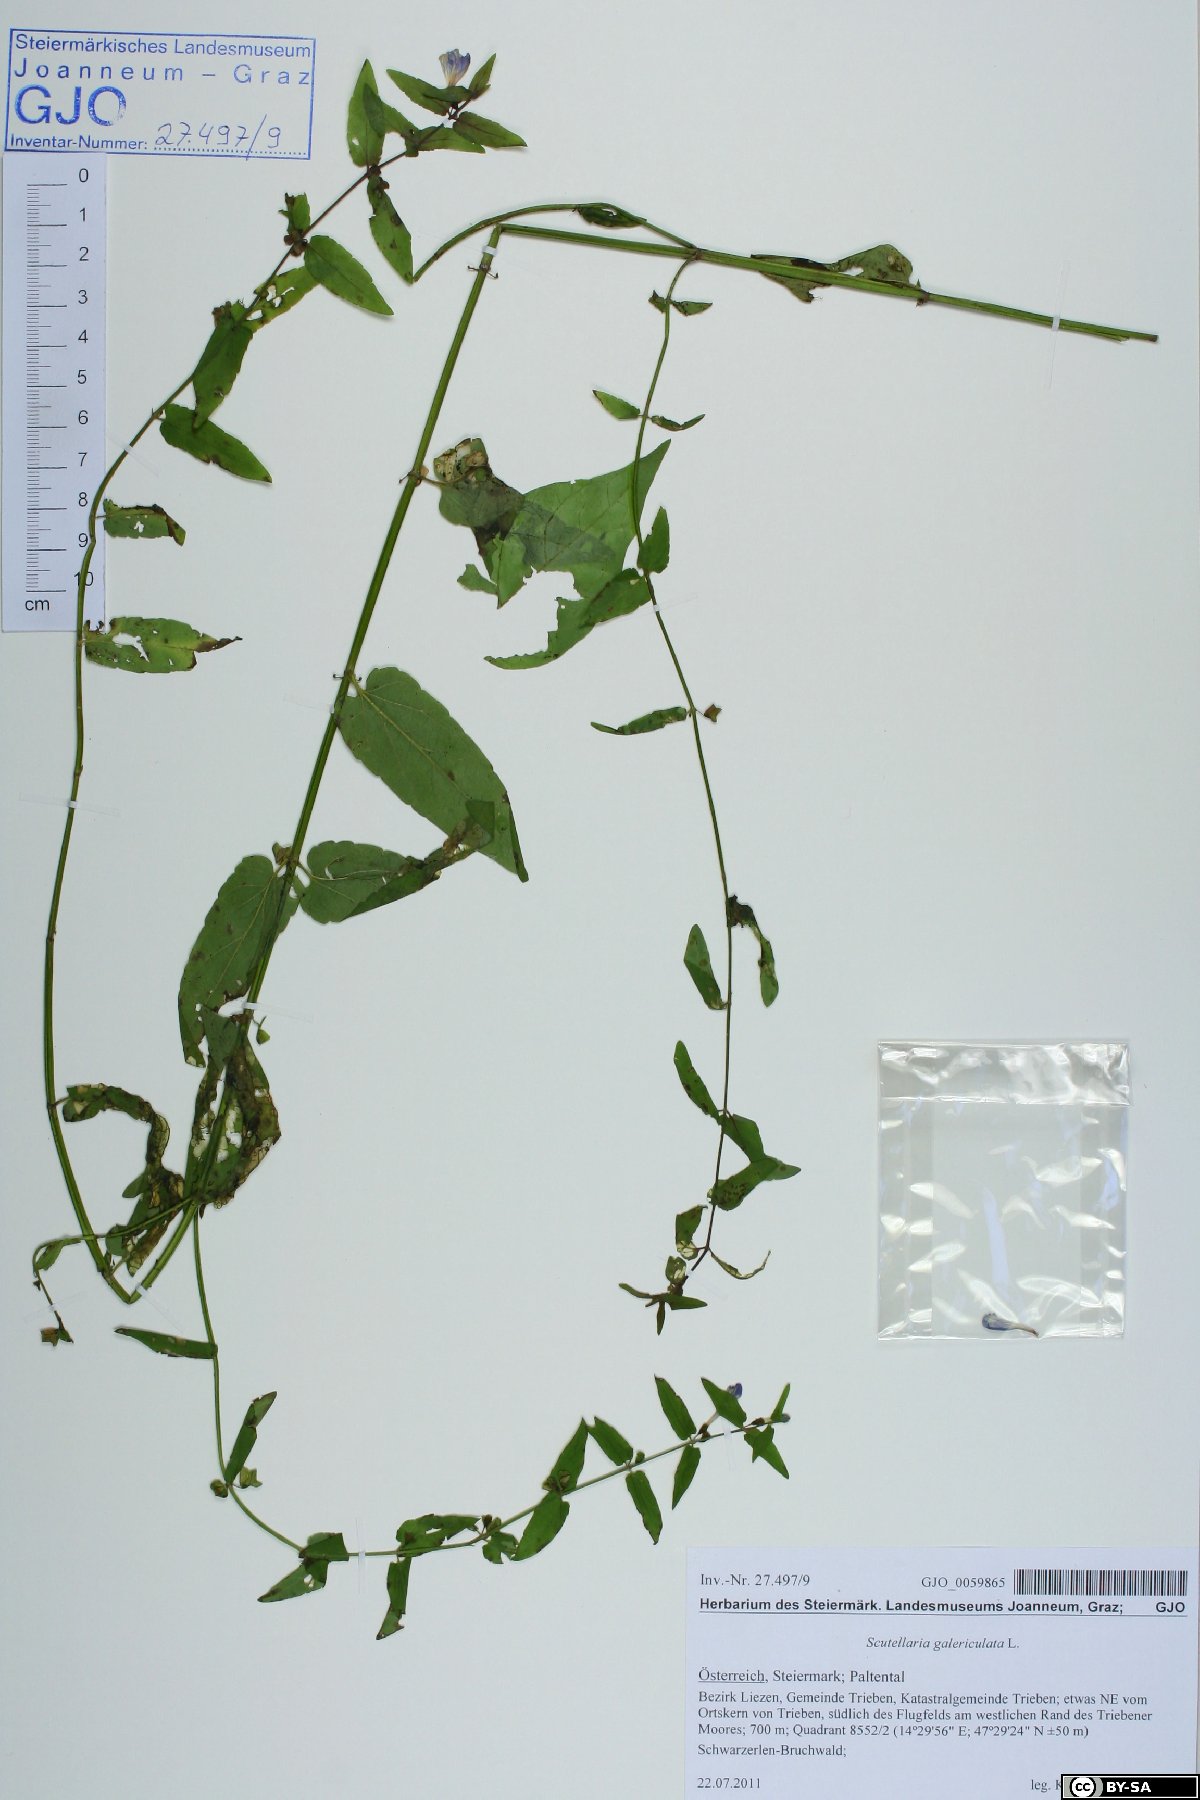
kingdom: Plantae
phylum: Tracheophyta
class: Magnoliopsida
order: Lamiales
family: Lamiaceae
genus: Scutellaria
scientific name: Scutellaria galericulata
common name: Skullcap
